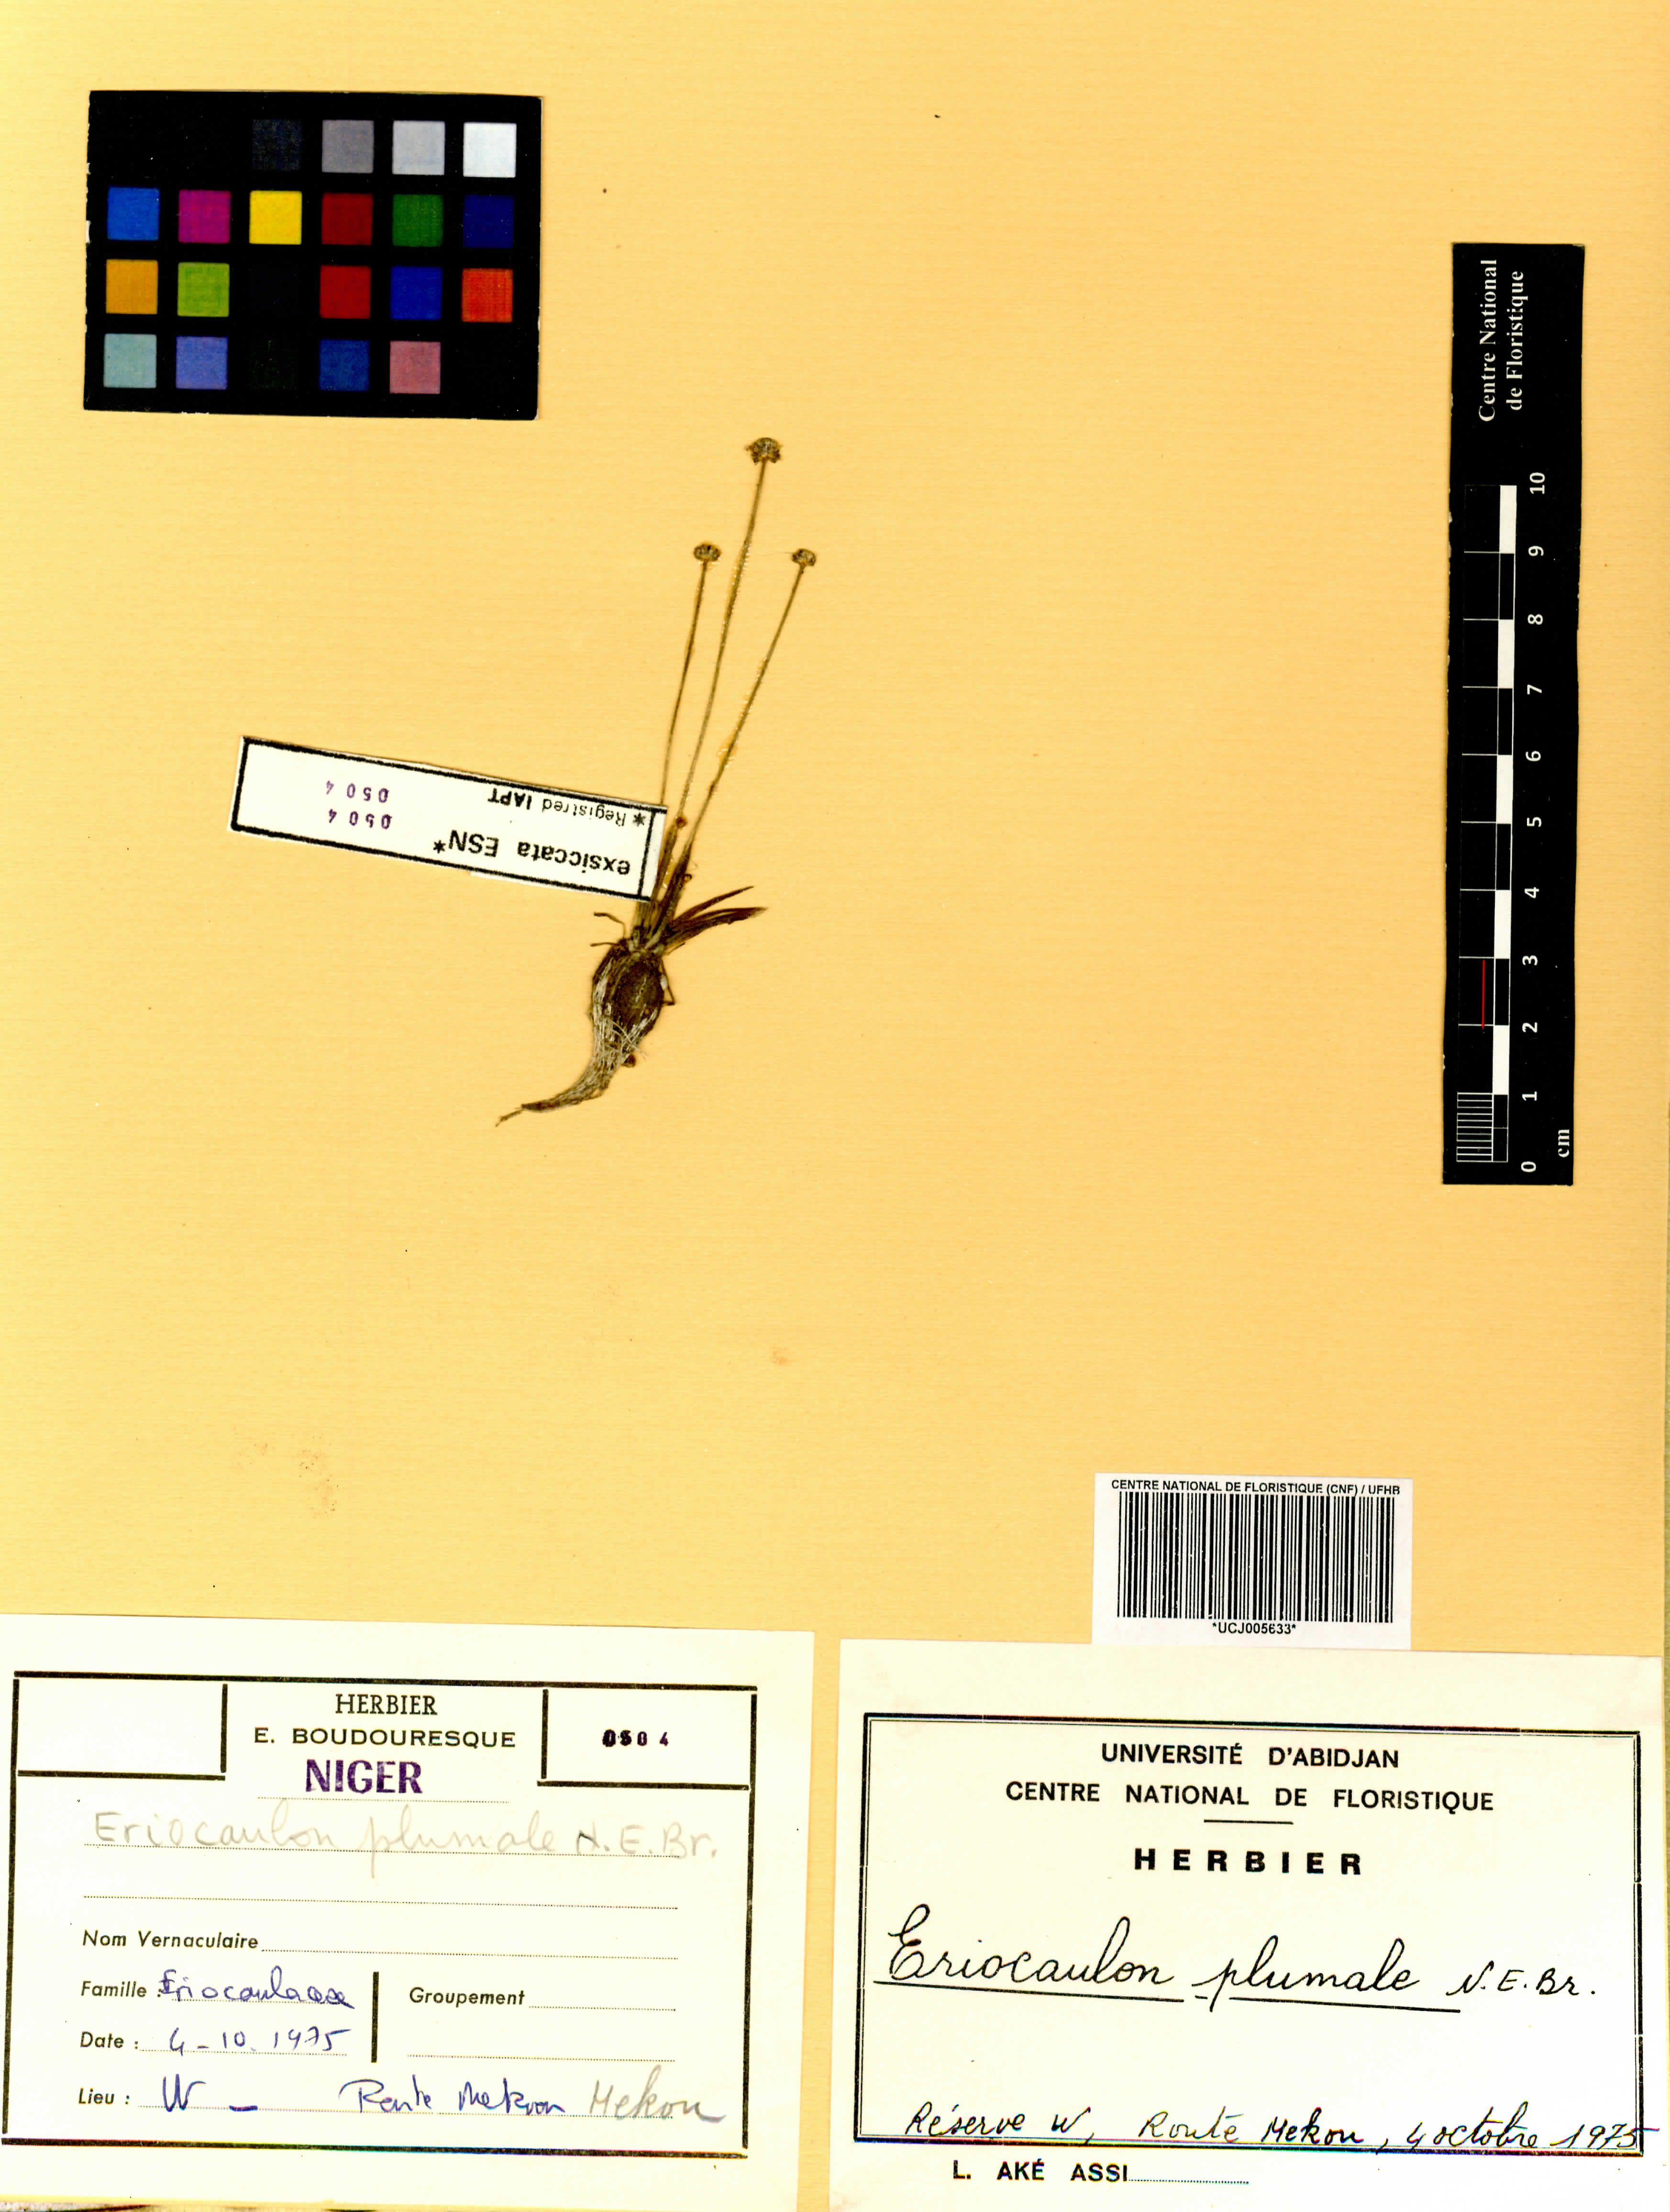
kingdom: Plantae
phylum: Tracheophyta
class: Liliopsida
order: Poales
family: Eriocaulaceae
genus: Eriocaulon
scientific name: Eriocaulon plumale
